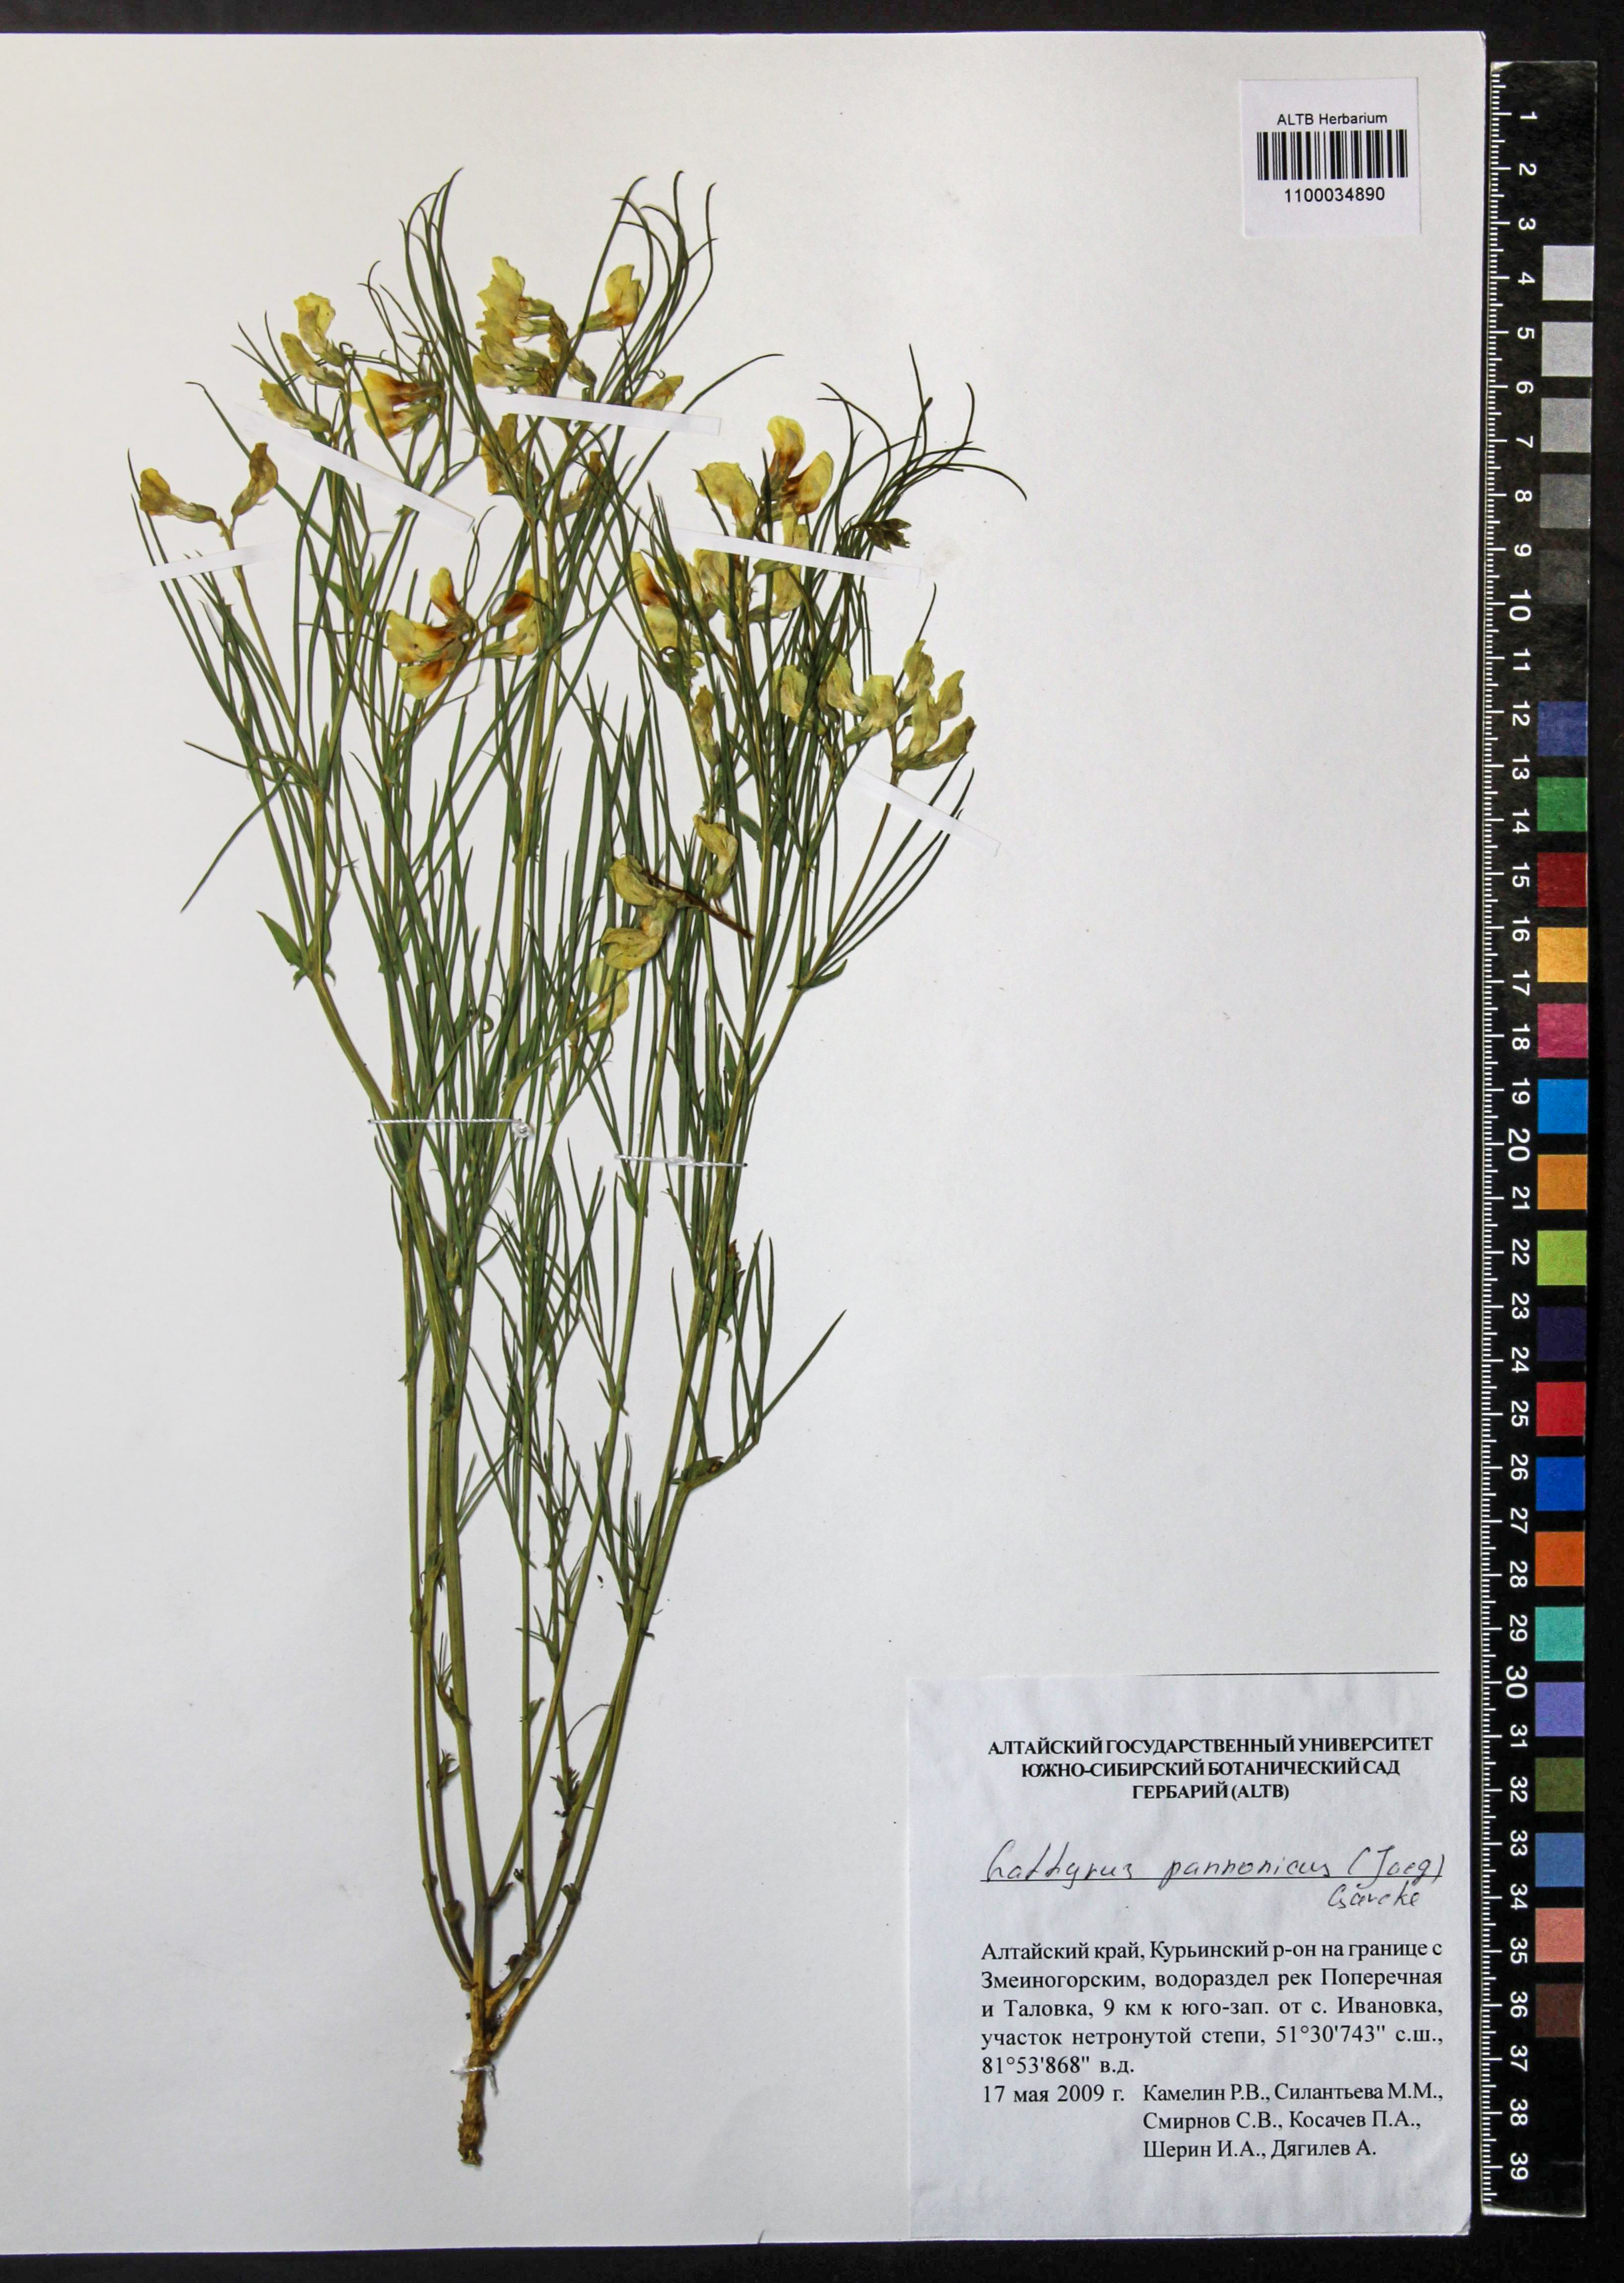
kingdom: Plantae
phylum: Tracheophyta
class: Magnoliopsida
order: Fabales
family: Fabaceae
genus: Lathyrus
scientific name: Lathyrus pannonicus
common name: Pea
